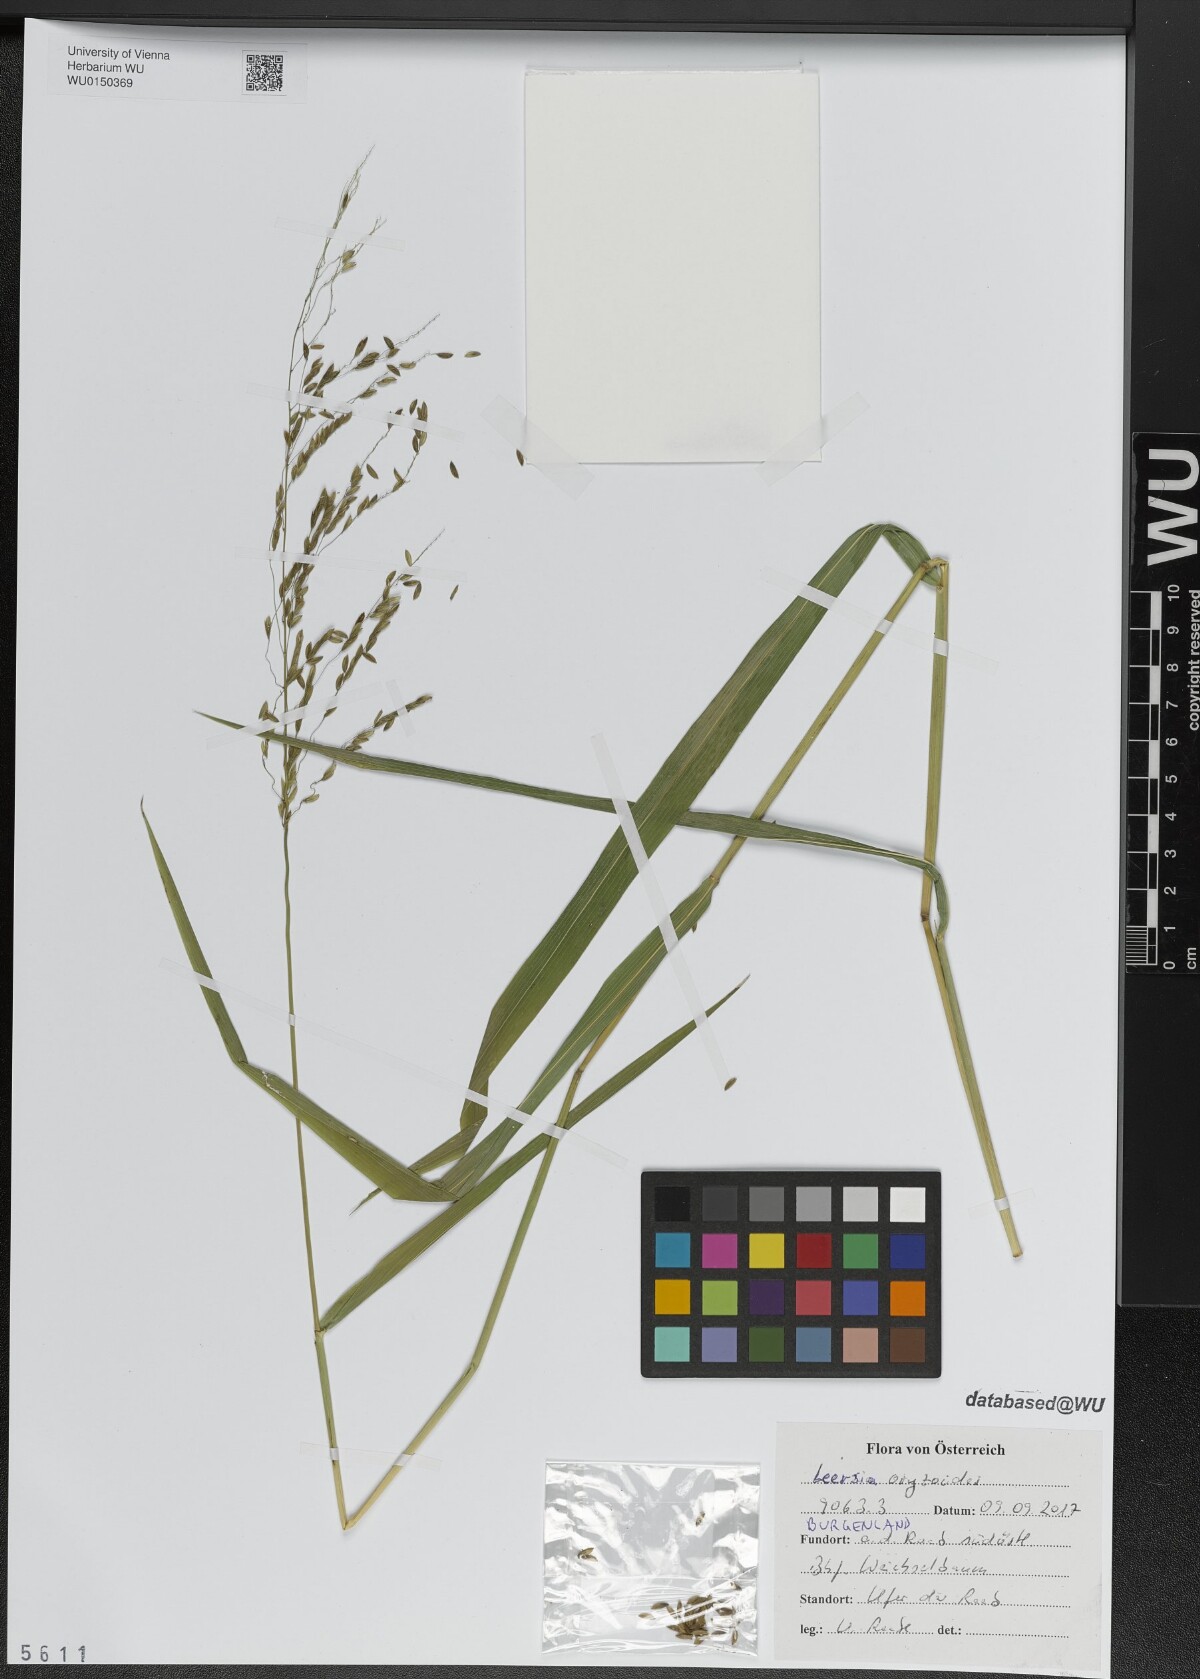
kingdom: Plantae
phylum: Tracheophyta
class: Liliopsida
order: Poales
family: Poaceae
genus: Leersia
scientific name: Leersia oryzoides
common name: Cut-grass
